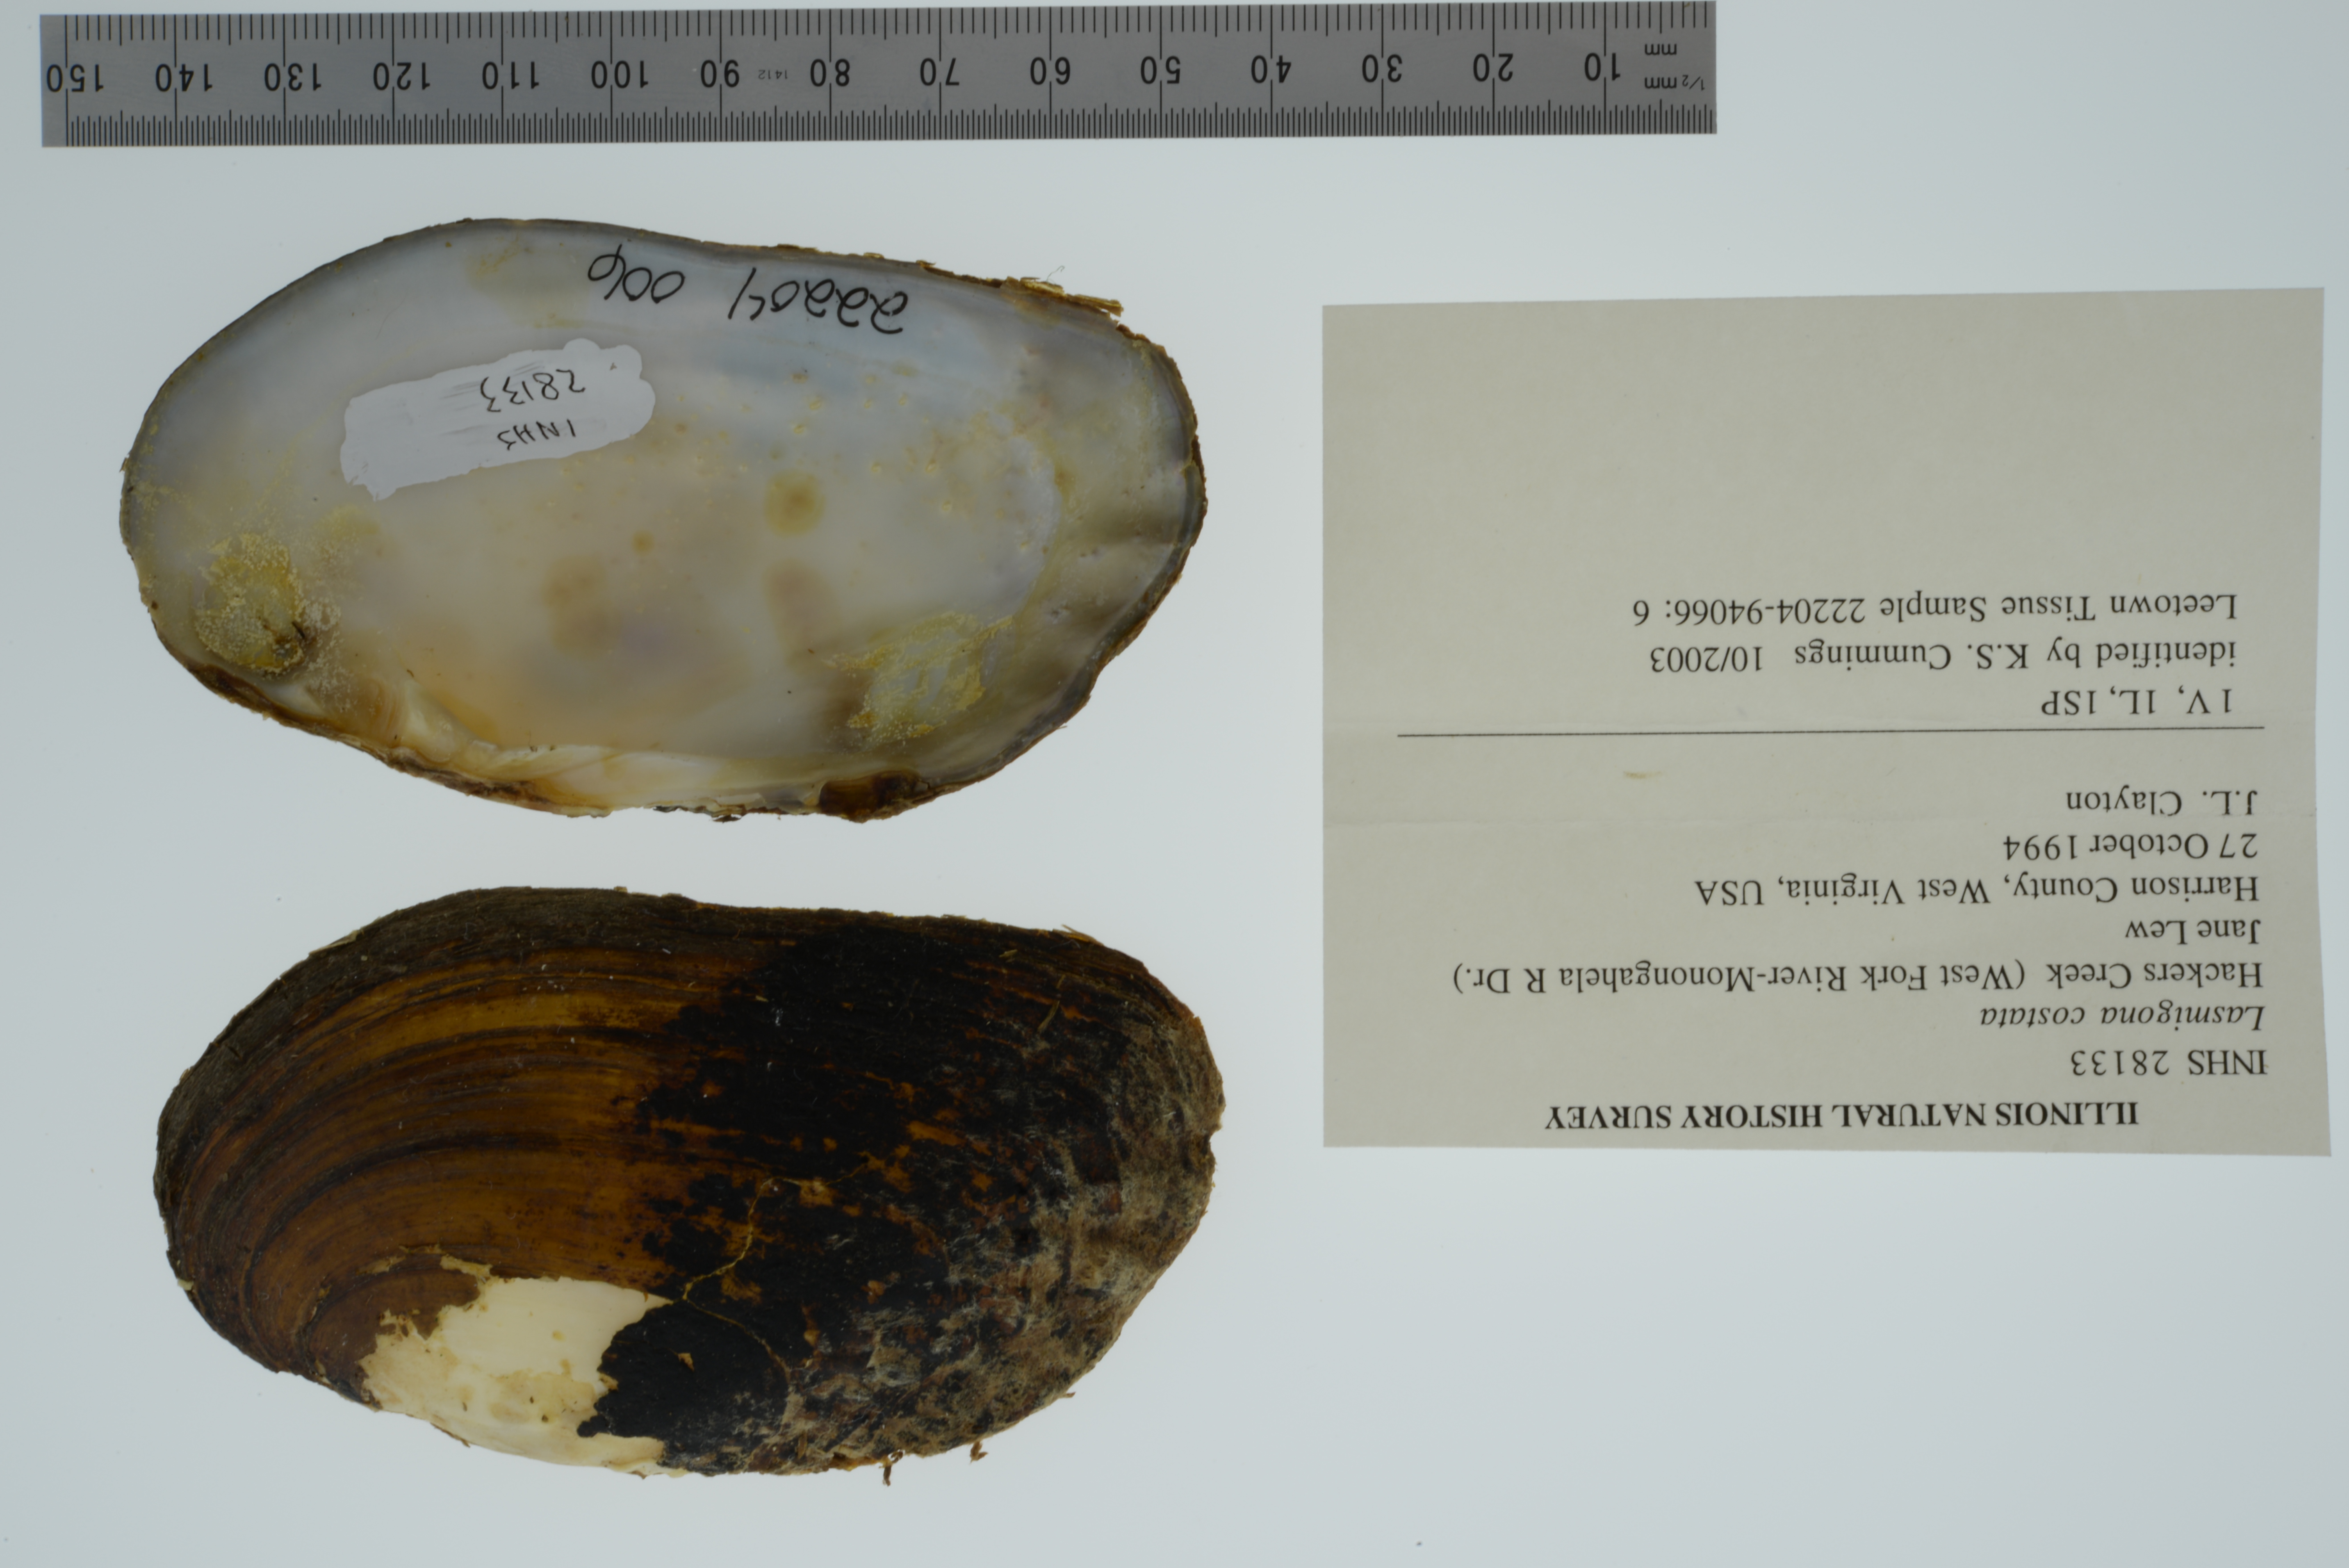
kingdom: Animalia
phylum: Mollusca
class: Bivalvia
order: Unionida
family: Unionidae
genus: Lasmigona
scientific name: Lasmigona costata
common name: Flutedshell
